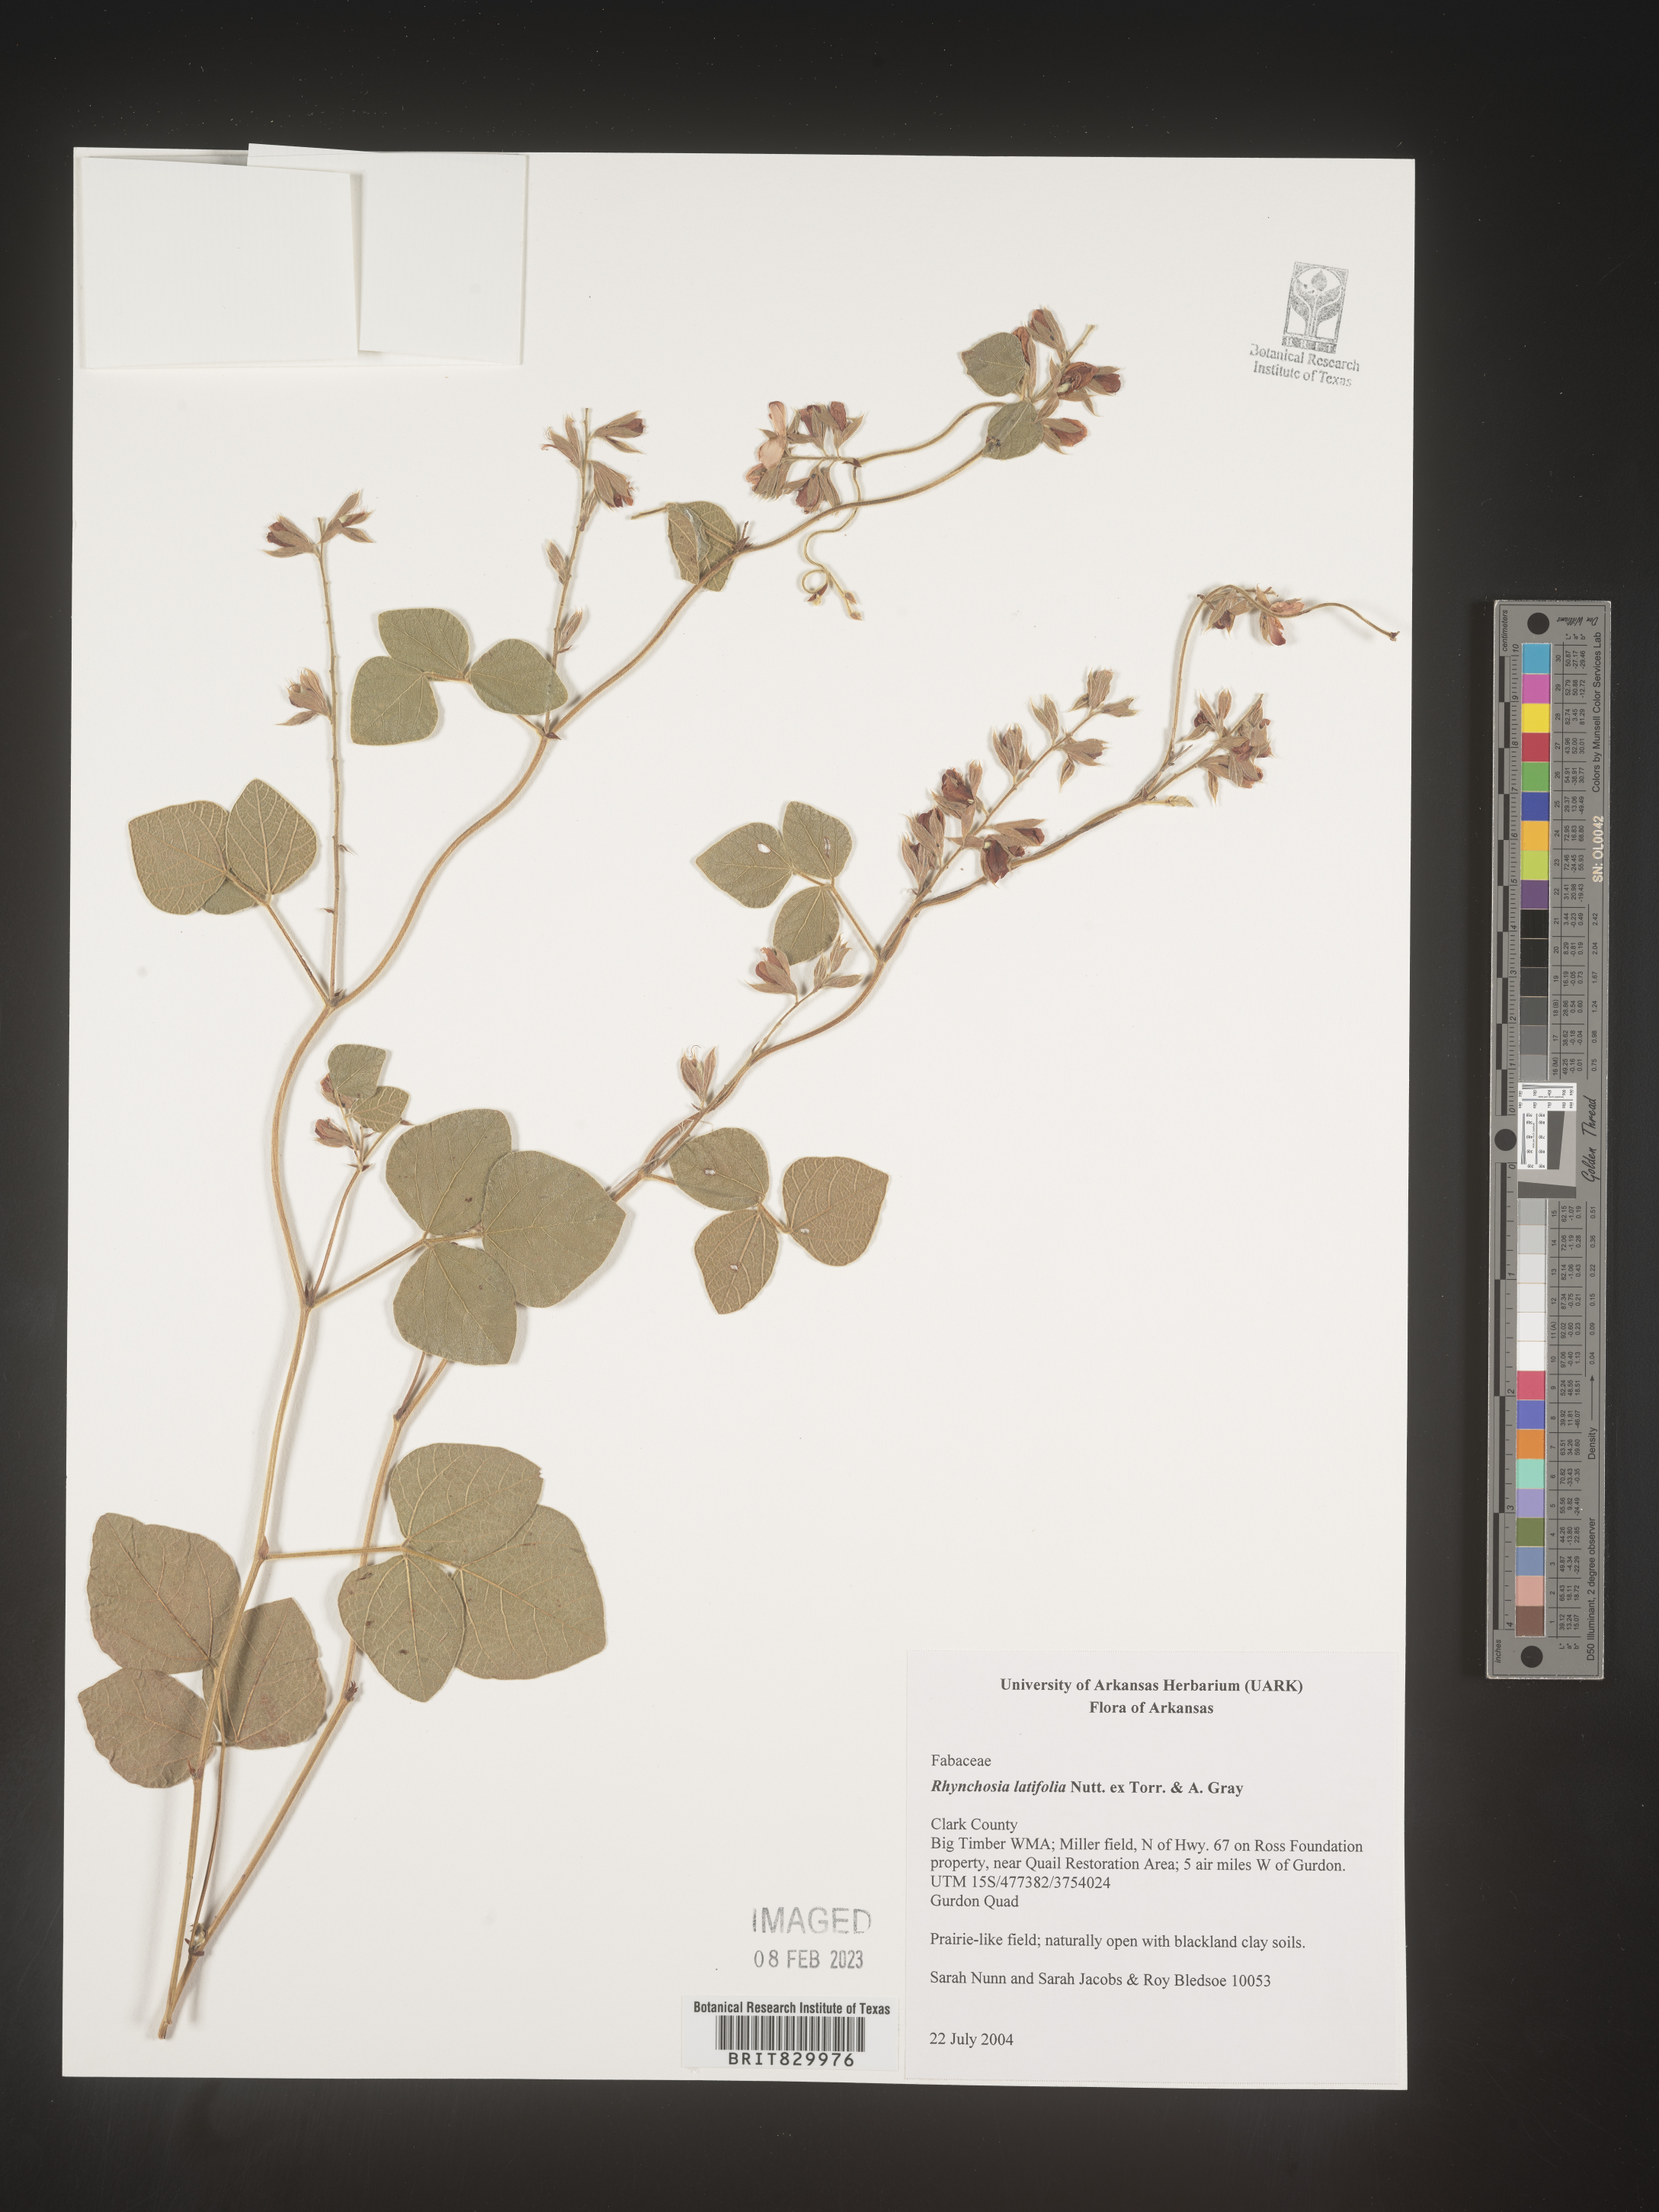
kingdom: Plantae
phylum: Tracheophyta
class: Magnoliopsida
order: Fabales
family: Fabaceae
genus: Rhynchosia
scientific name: Rhynchosia latifolia
